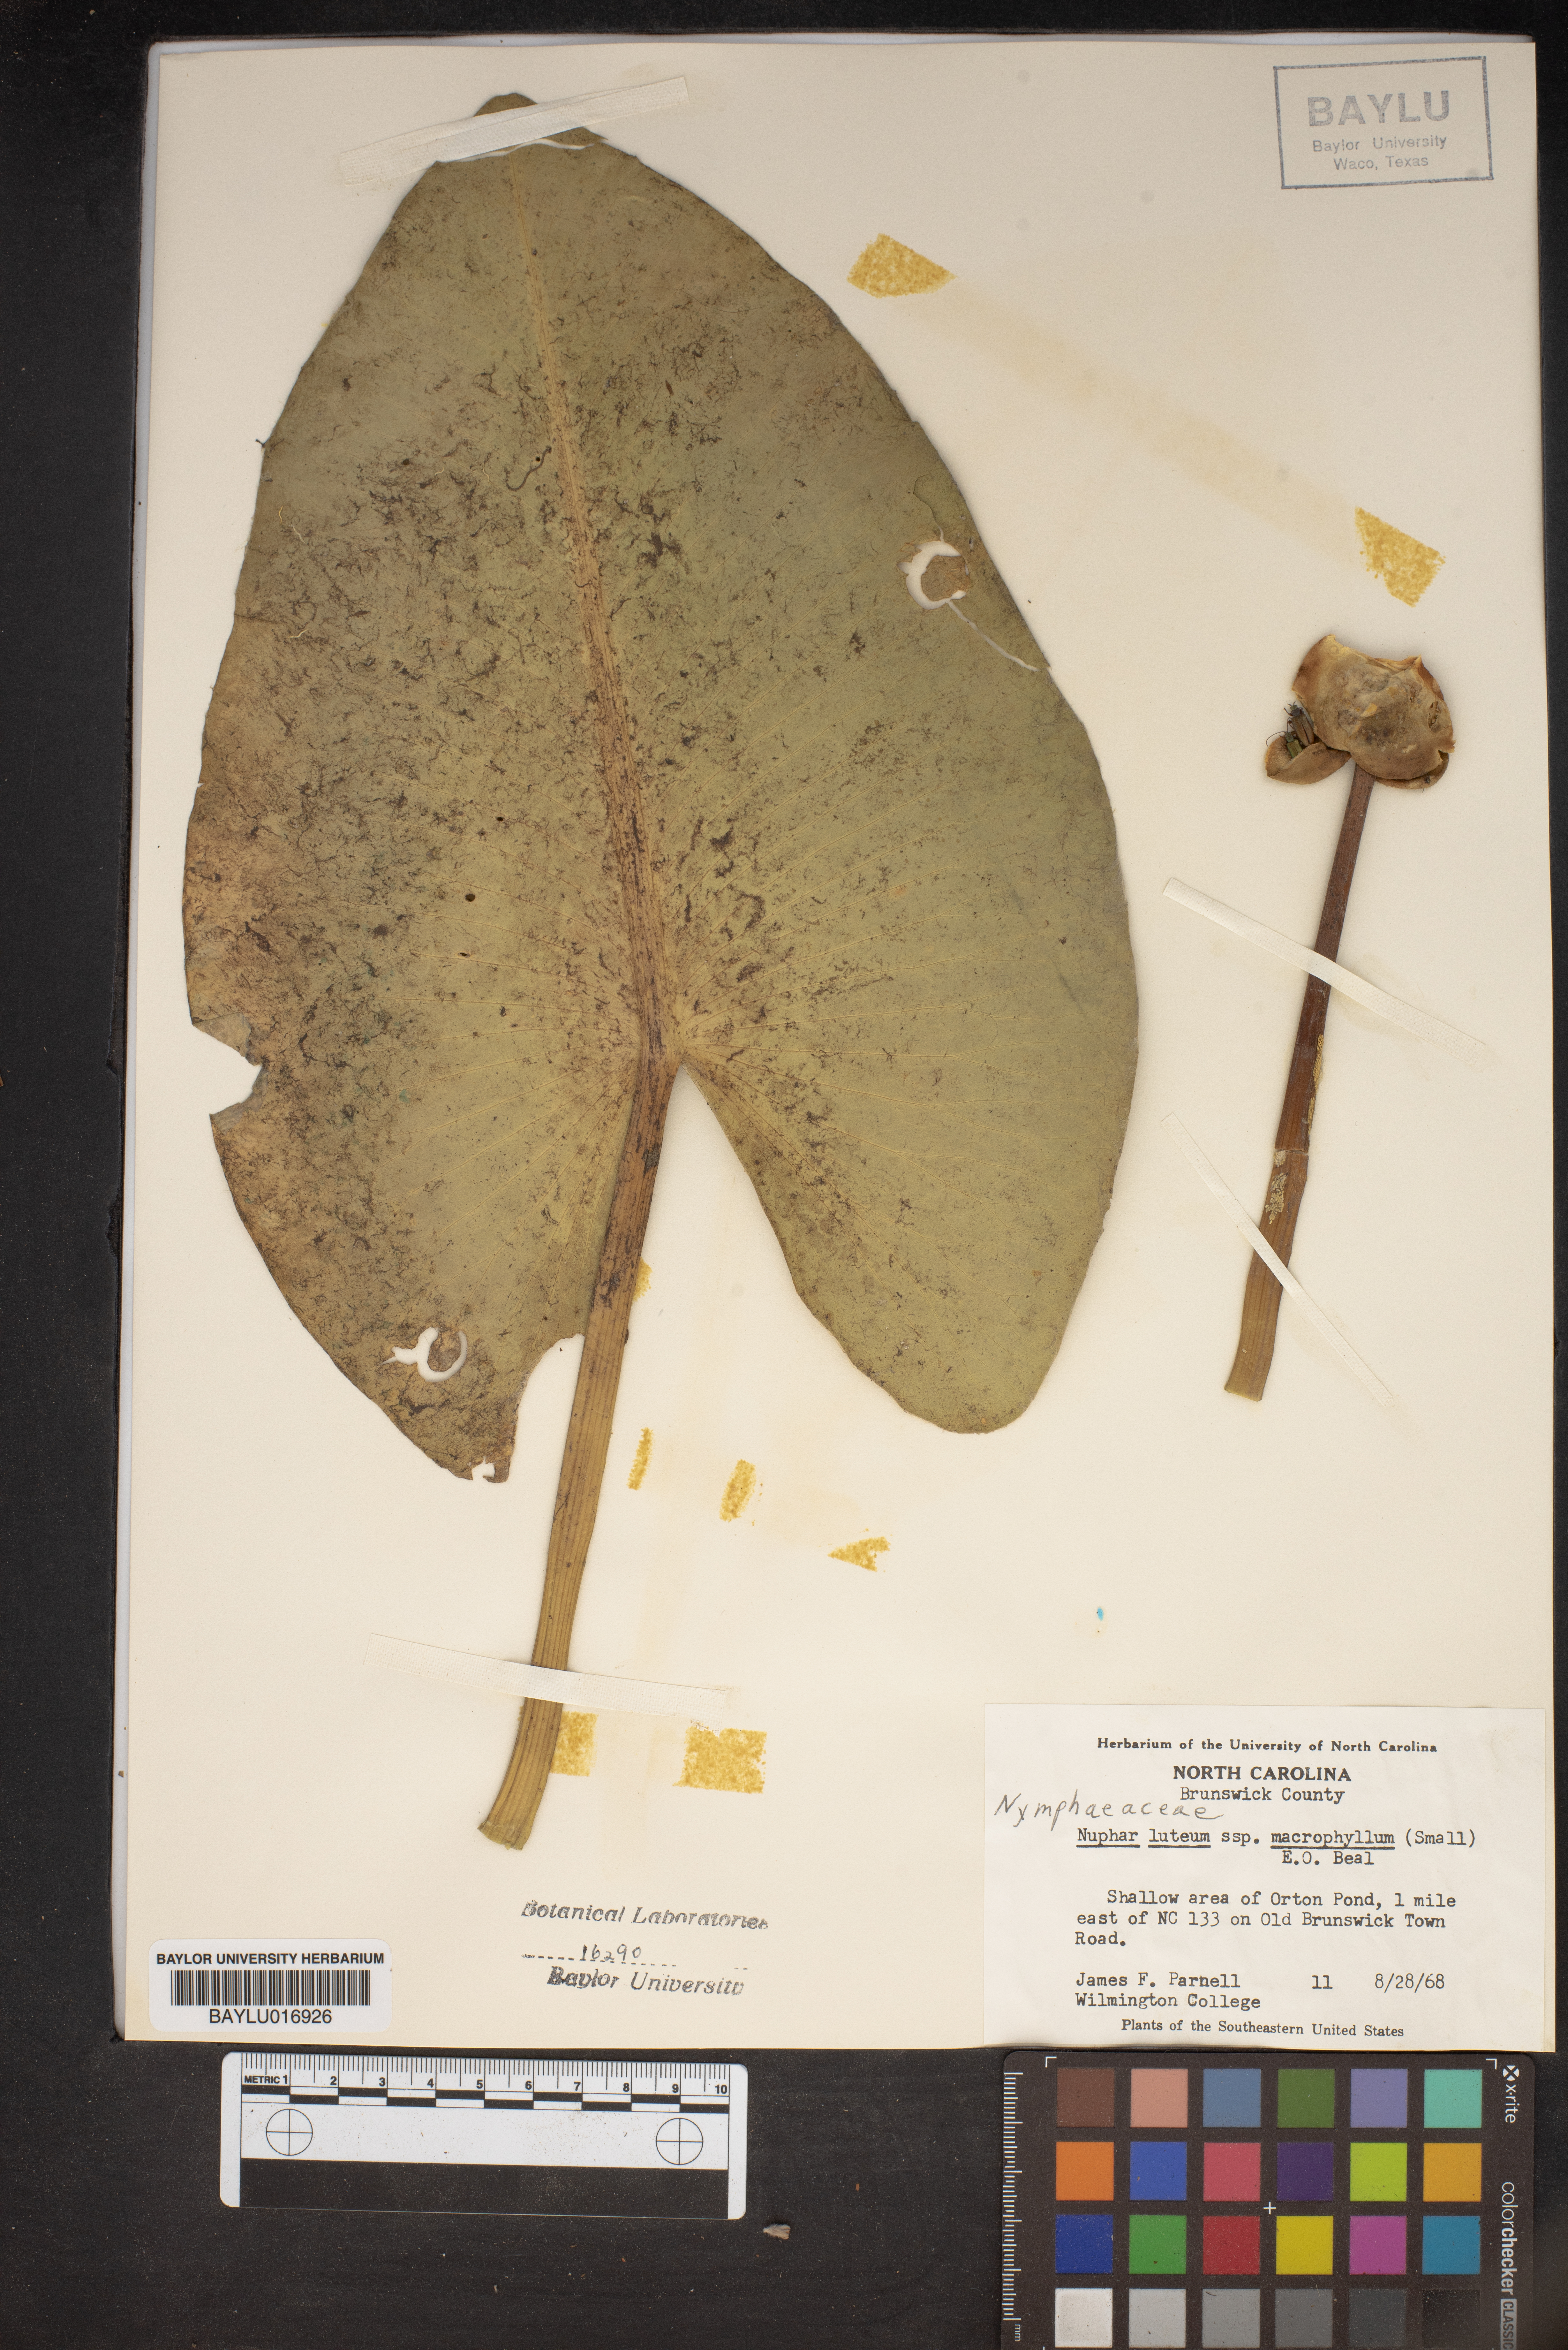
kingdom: Plantae
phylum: Tracheophyta
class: Magnoliopsida
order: Nymphaeales
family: Nymphaeaceae
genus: Nuphar
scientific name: Nuphar advena
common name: Spatter-dock
